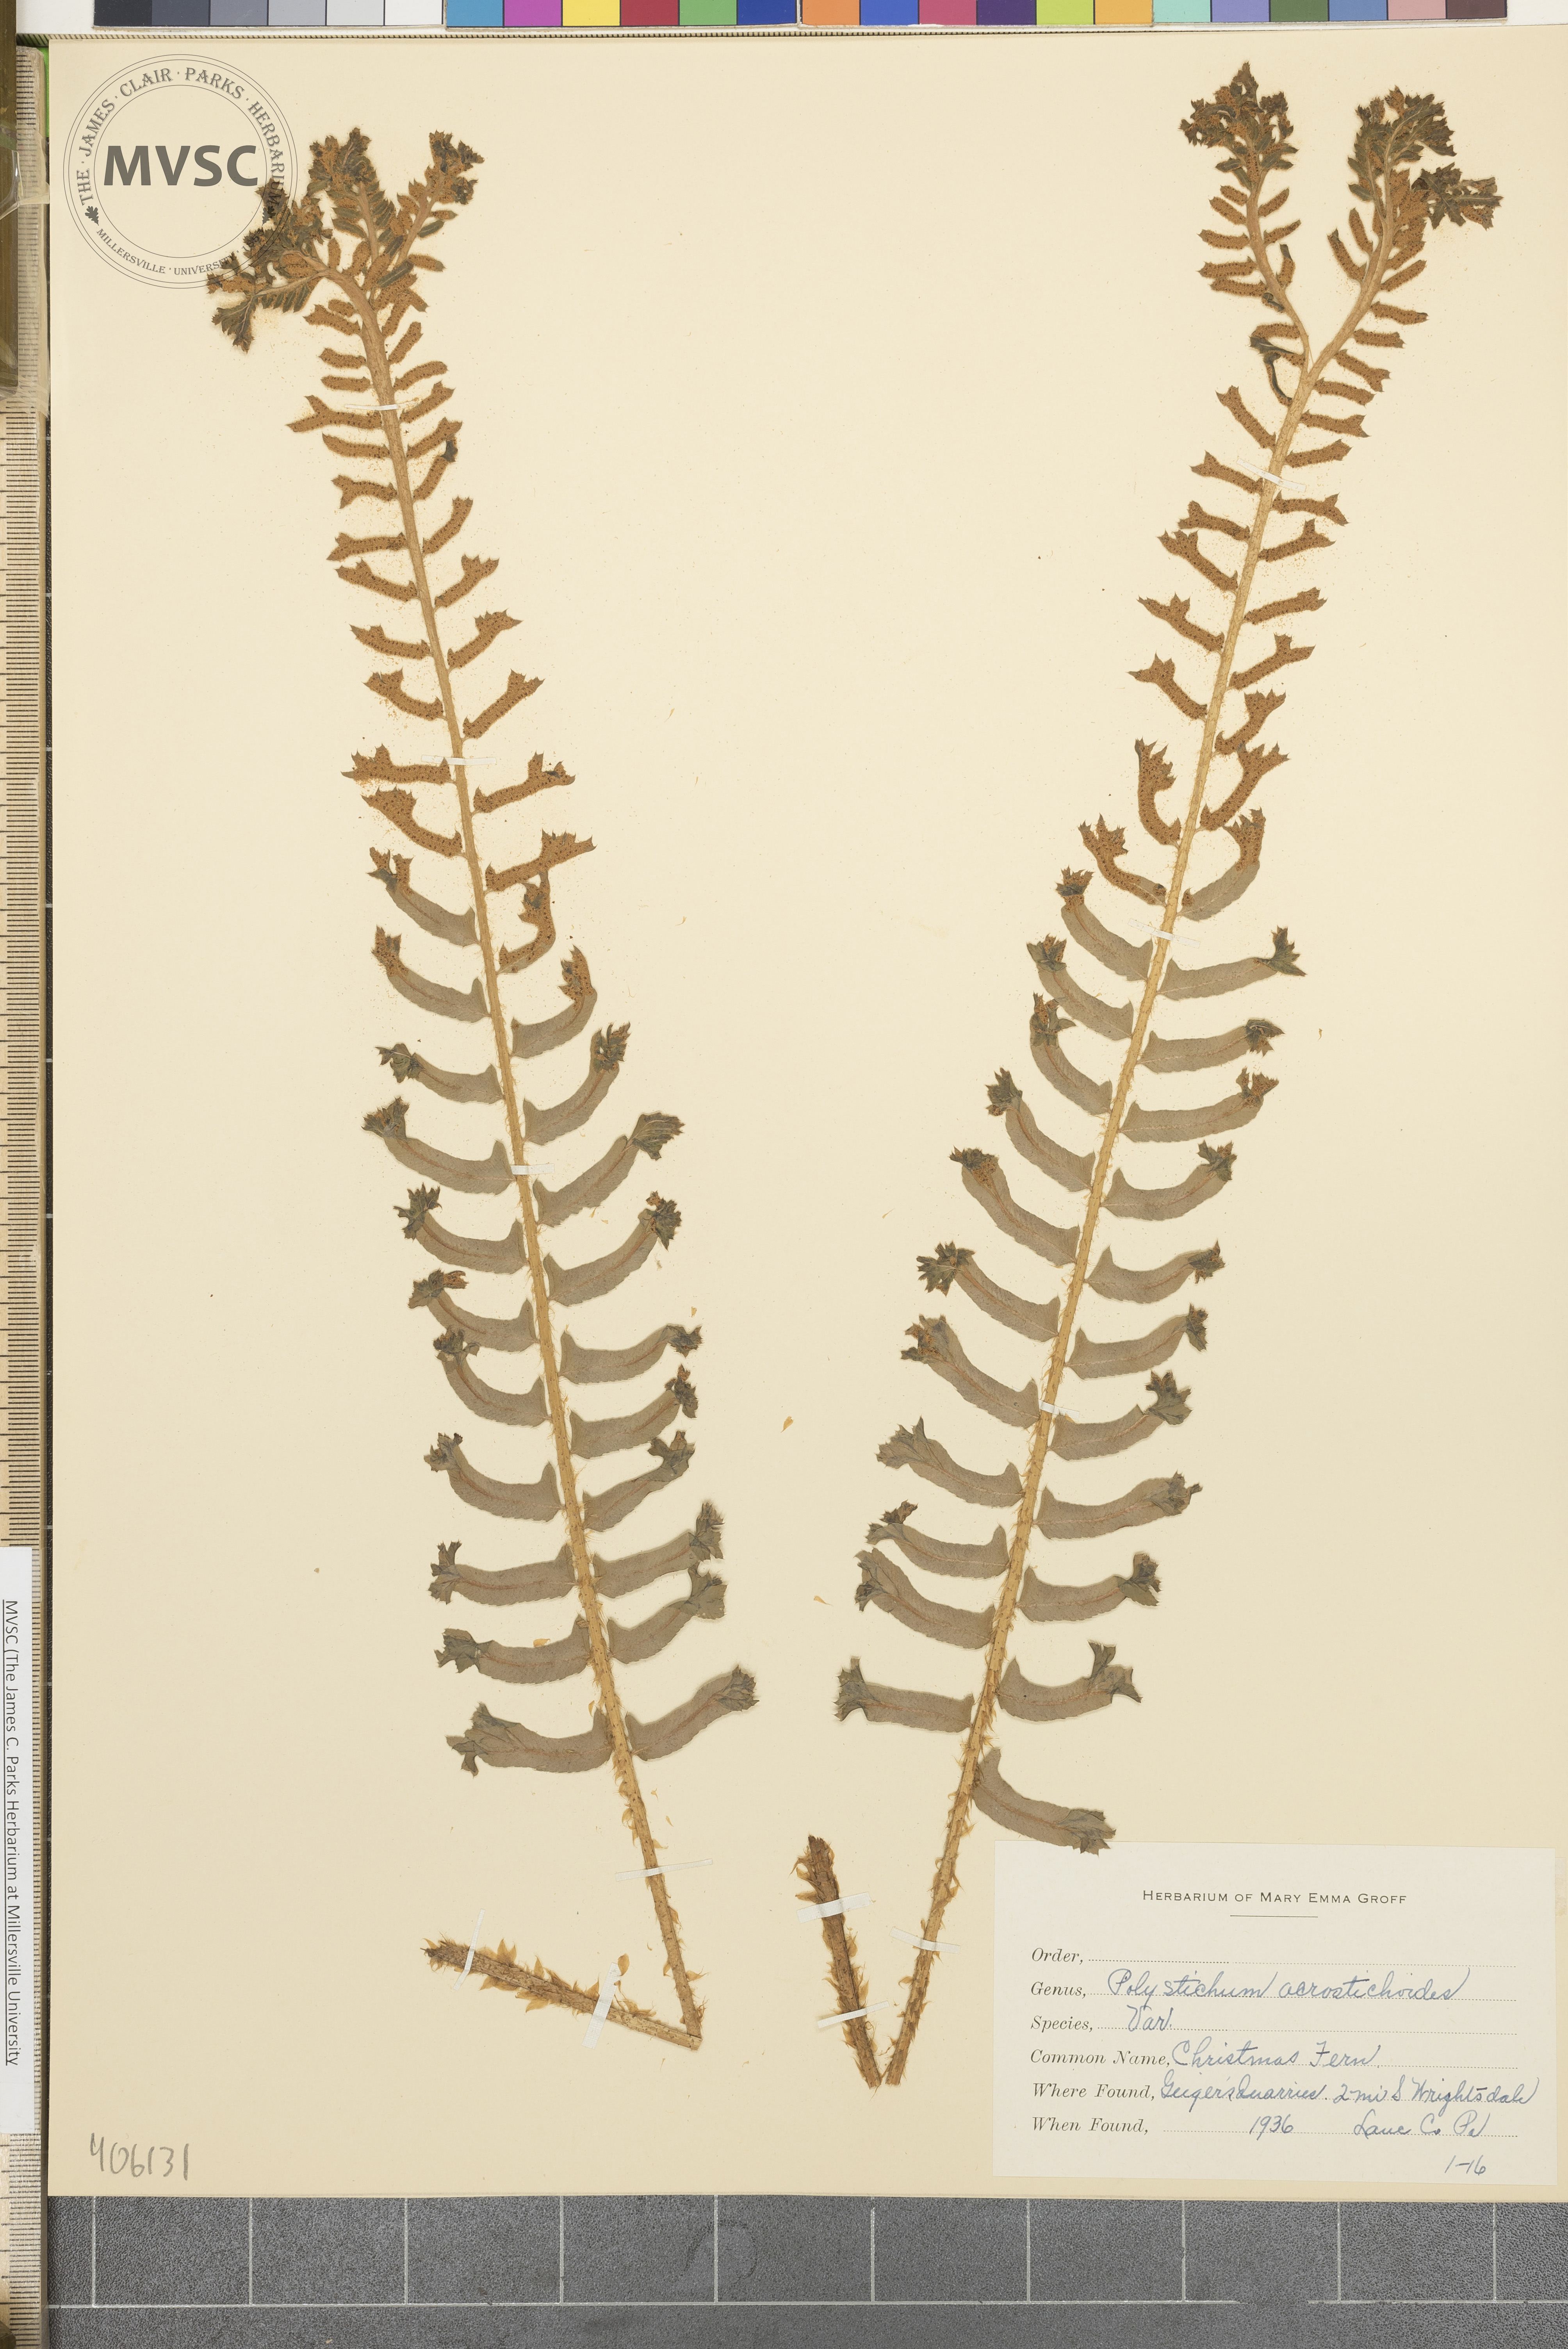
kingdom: Plantae
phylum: Tracheophyta
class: Polypodiopsida
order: Polypodiales
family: Dryopteridaceae
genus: Polystichum
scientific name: Polystichum acrostichoides
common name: Christmas fern
